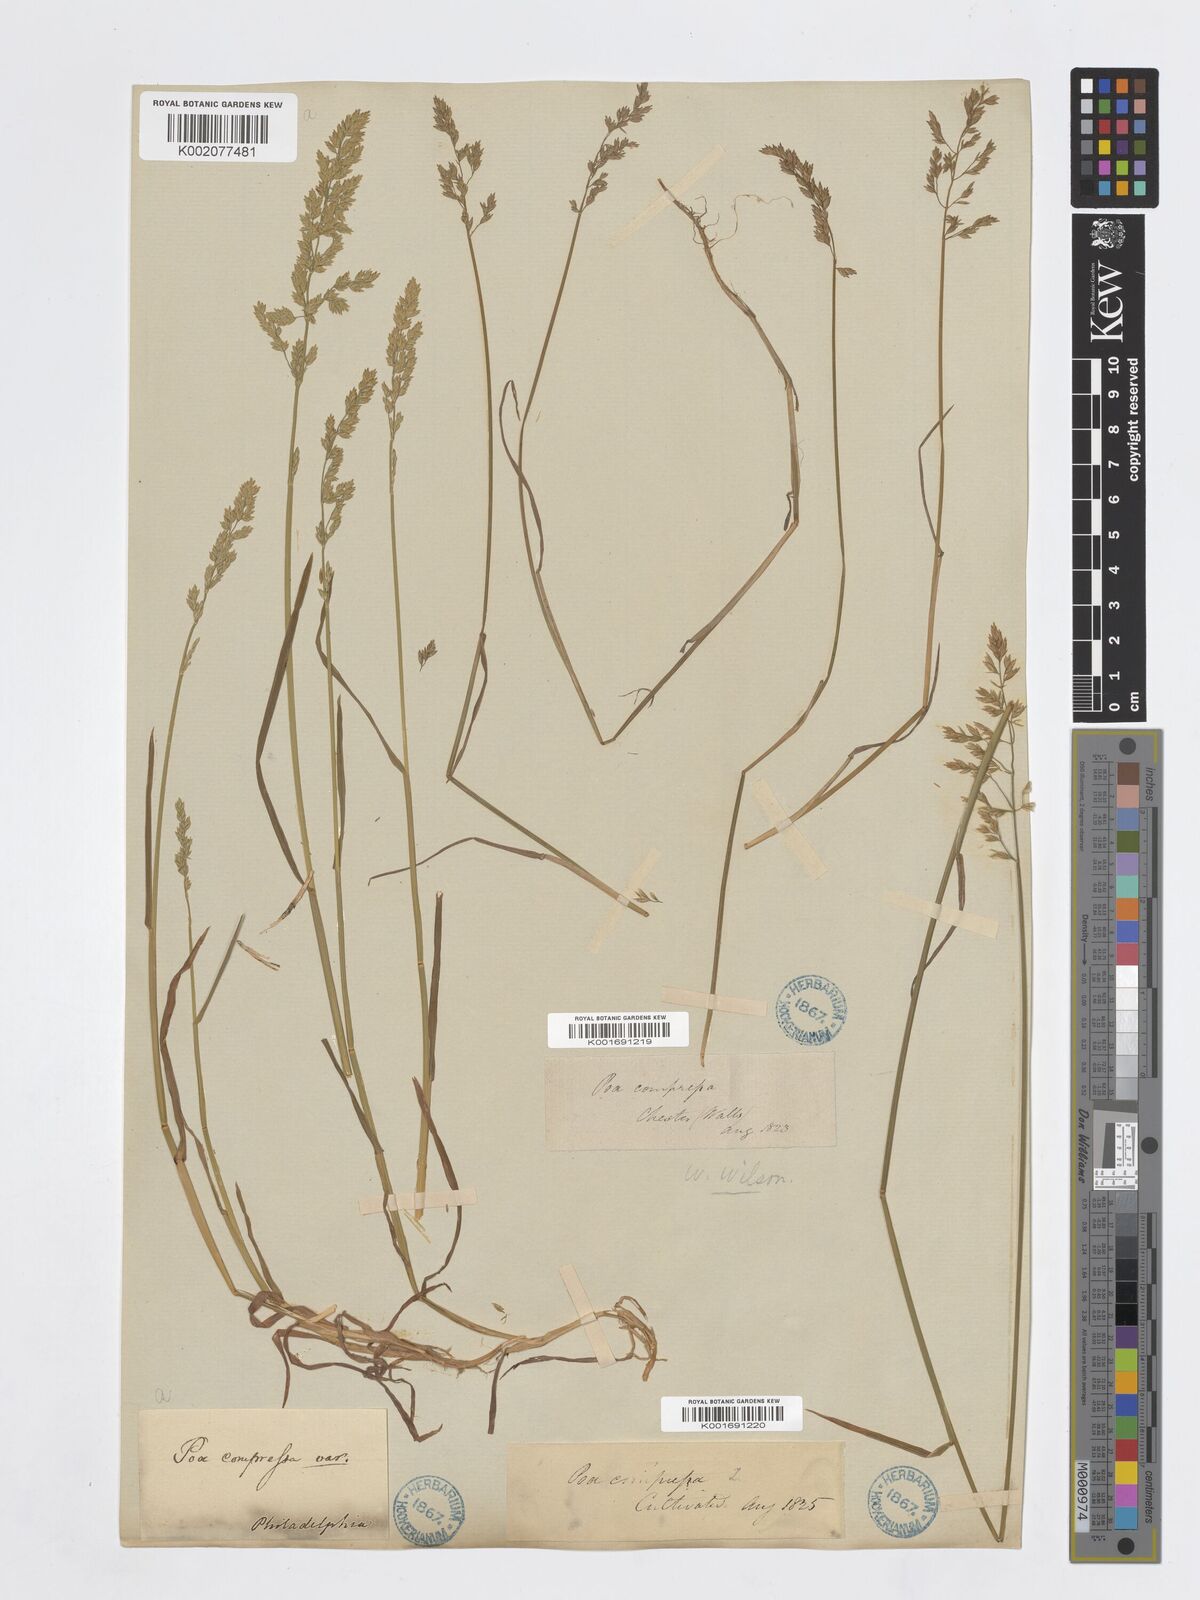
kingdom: Plantae
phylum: Tracheophyta
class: Liliopsida
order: Poales
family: Poaceae
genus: Poa
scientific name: Poa compressa
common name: Canada bluegrass
